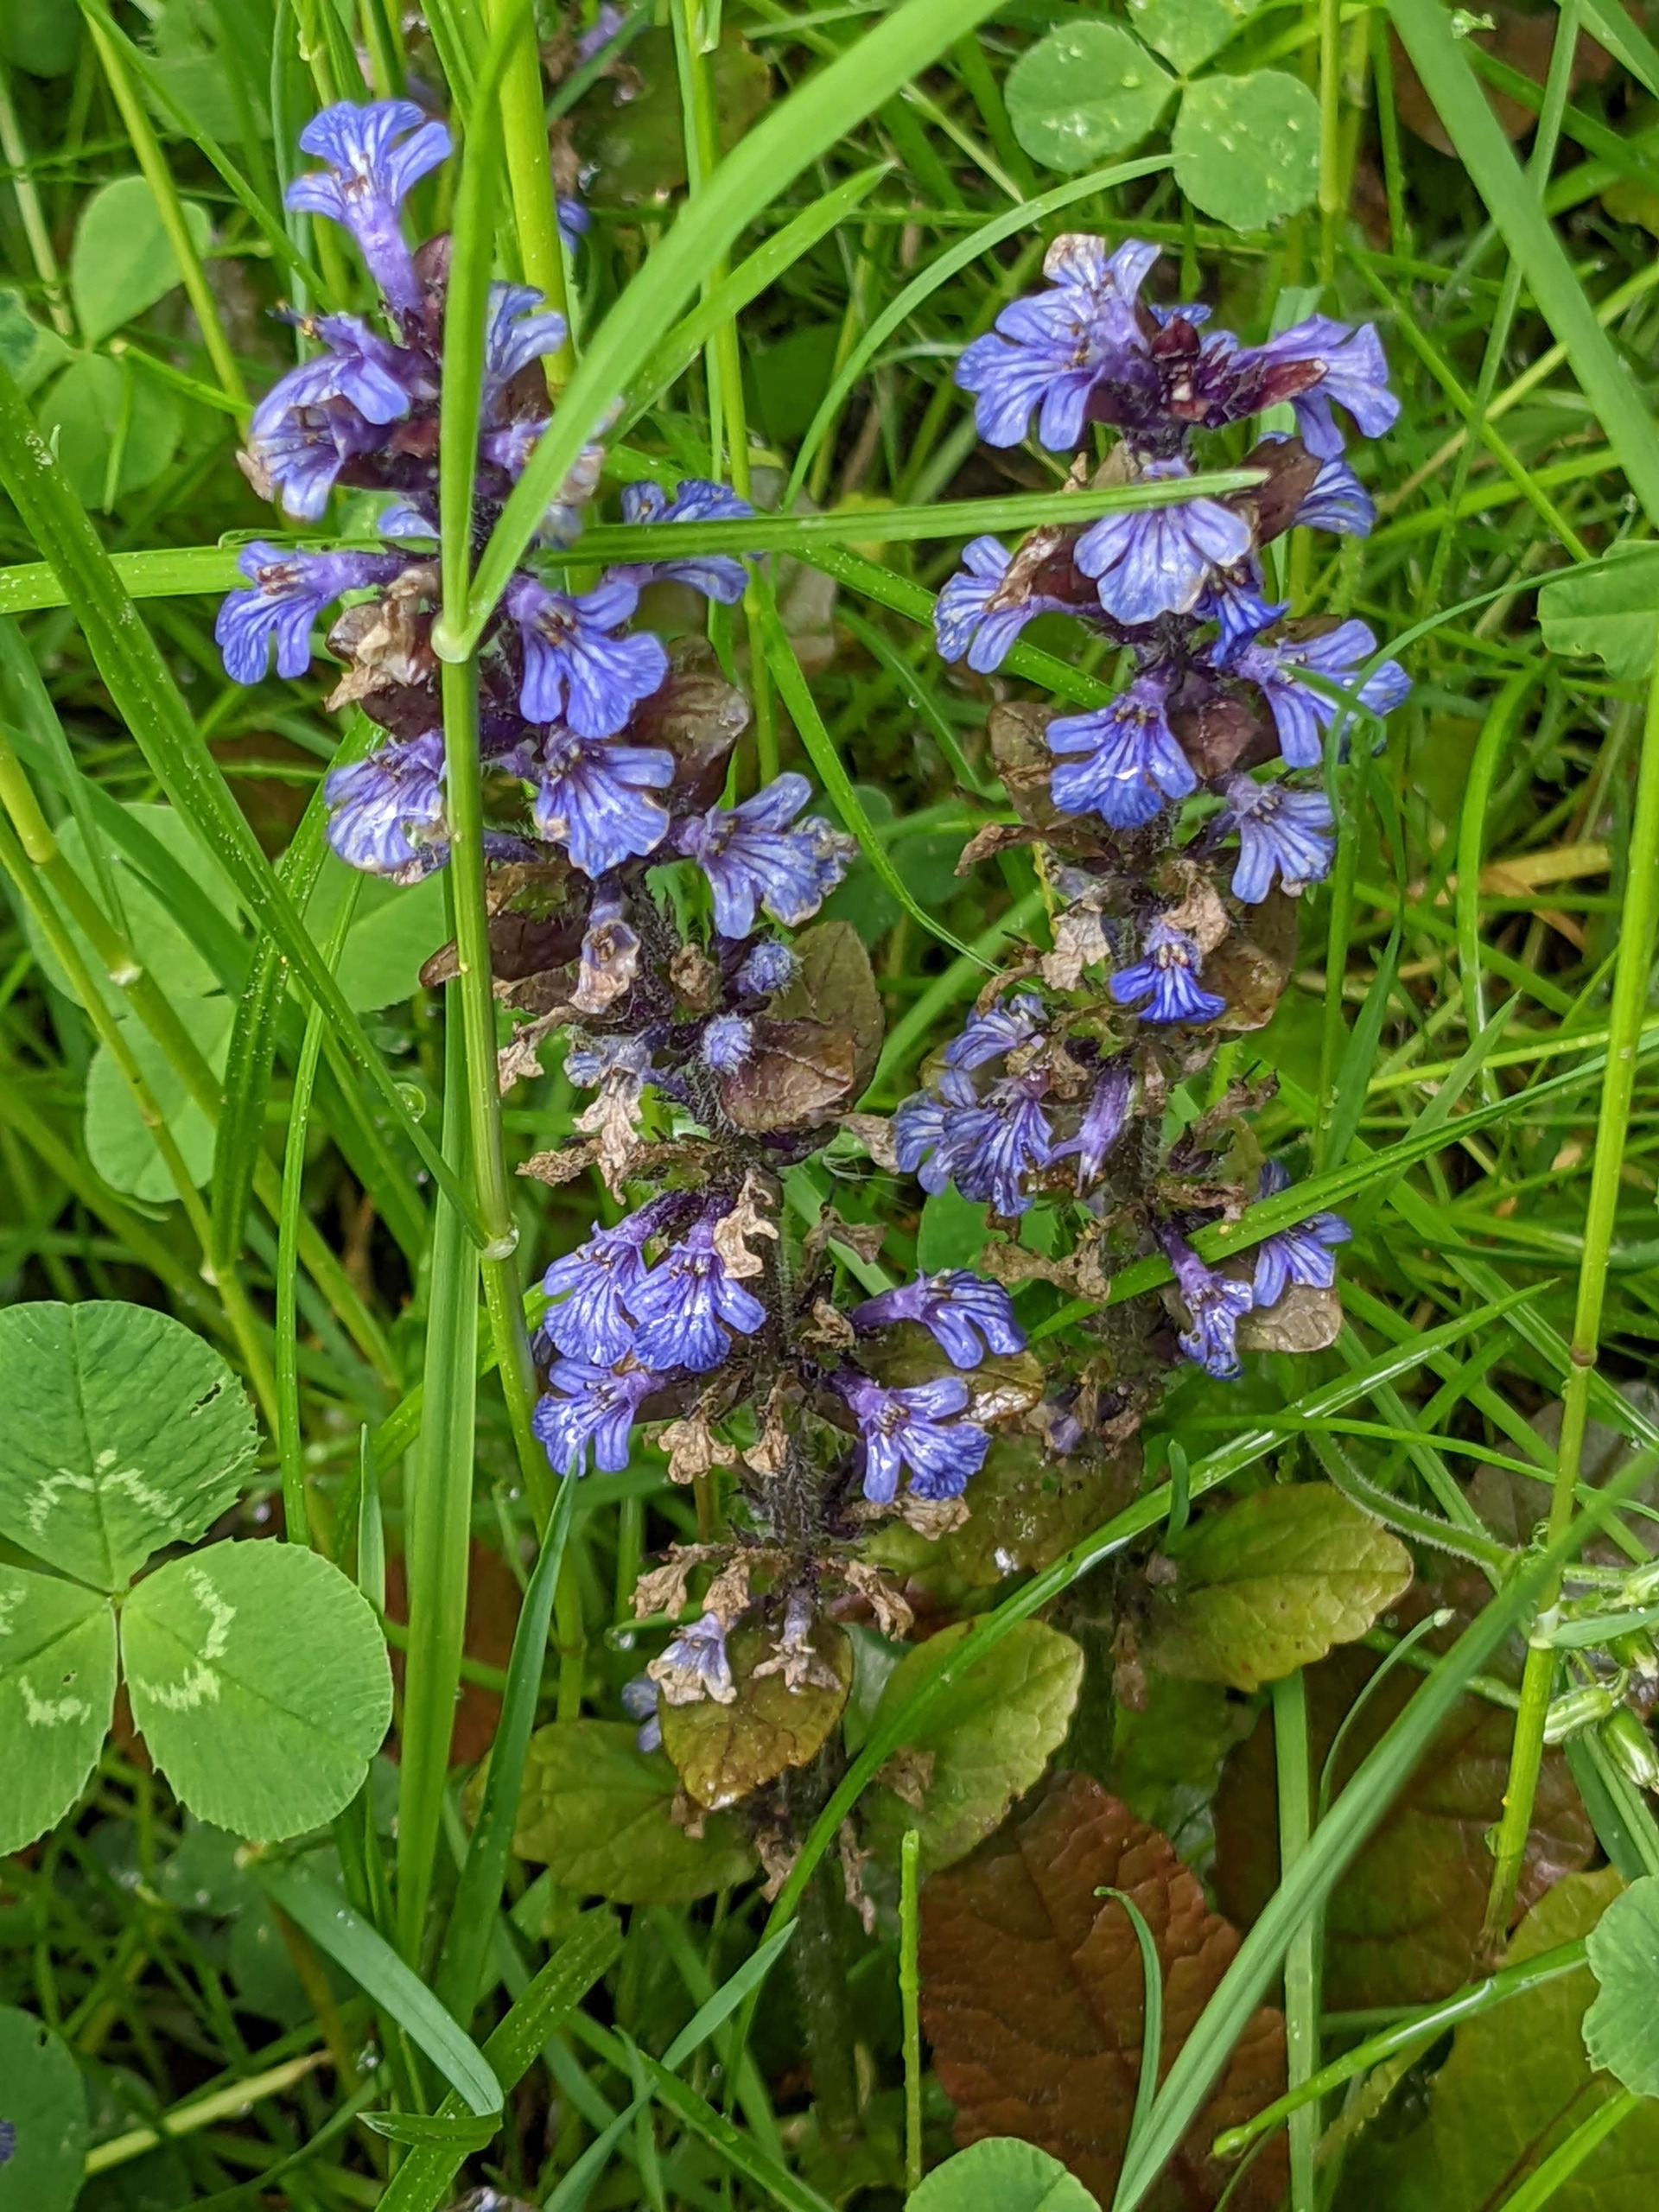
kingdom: Plantae
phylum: Tracheophyta
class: Magnoliopsida
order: Lamiales
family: Lamiaceae
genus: Ajuga
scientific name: Ajuga reptans
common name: Krybende læbeløs
